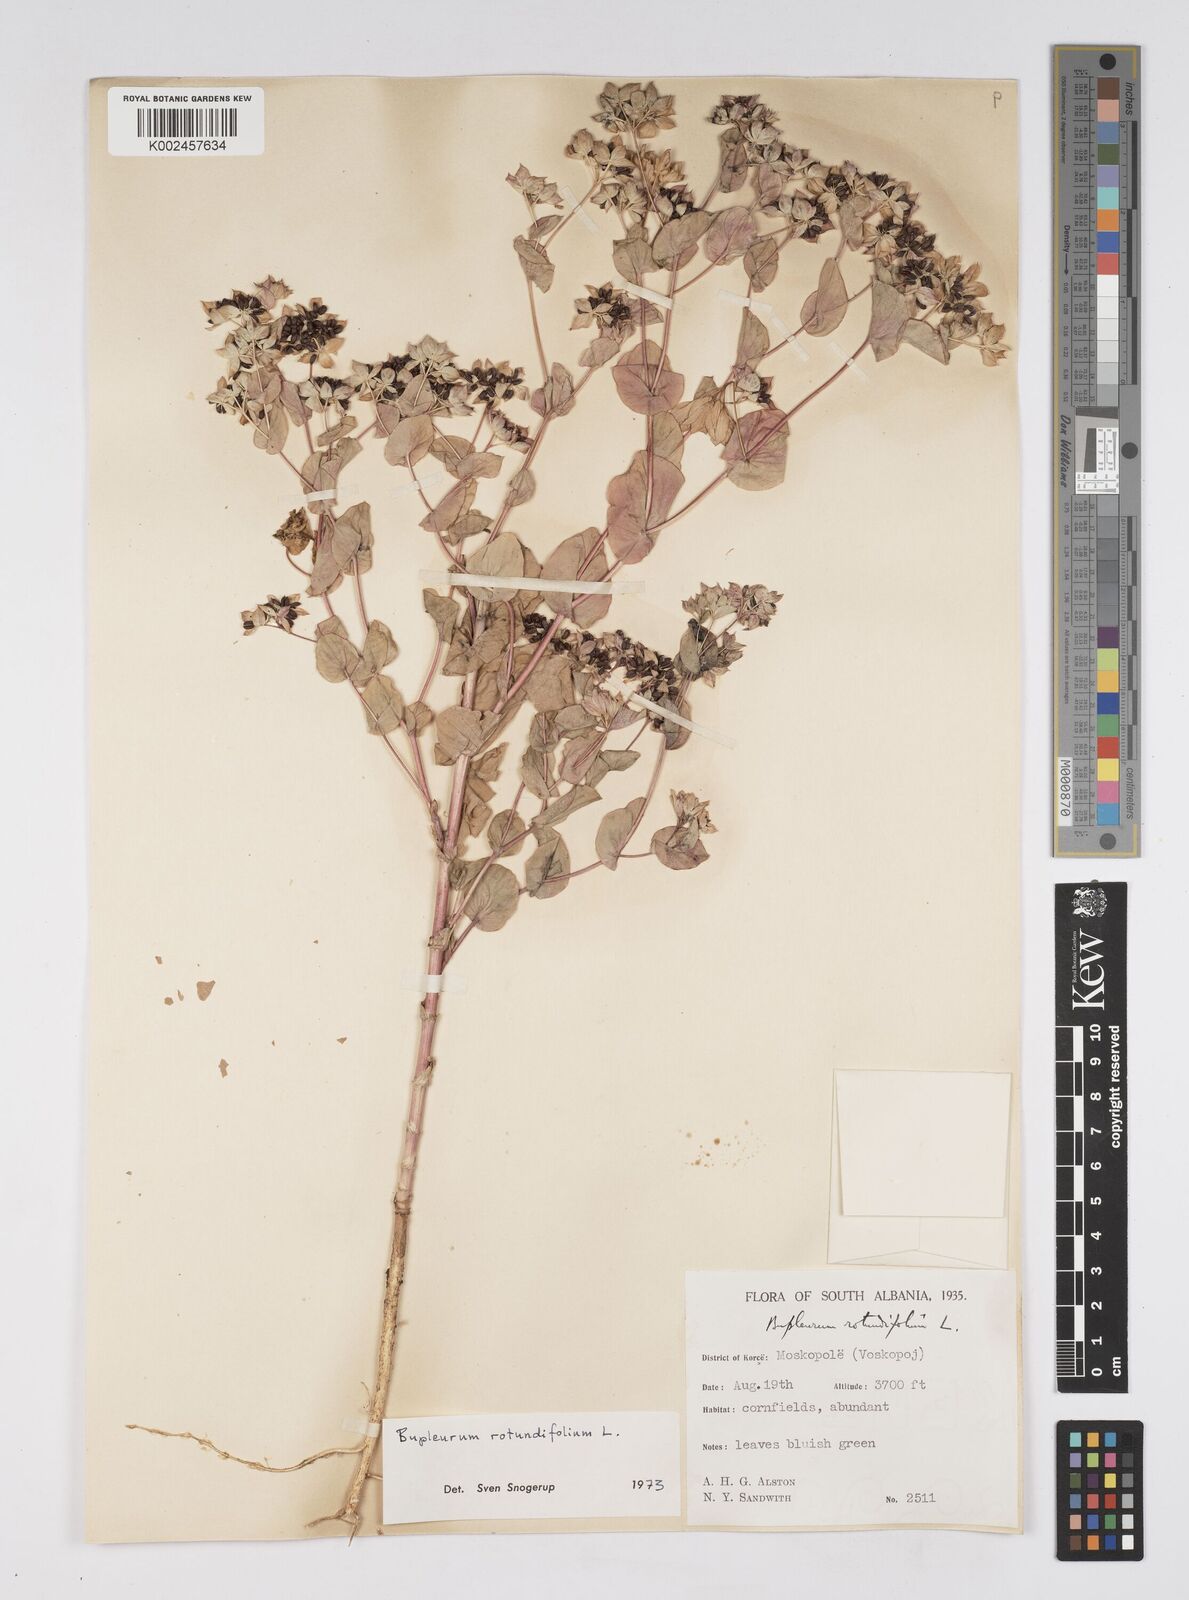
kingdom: Plantae
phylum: Tracheophyta
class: Magnoliopsida
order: Apiales
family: Apiaceae
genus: Bupleurum
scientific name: Bupleurum rotundifolium
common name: Thorow-wax
